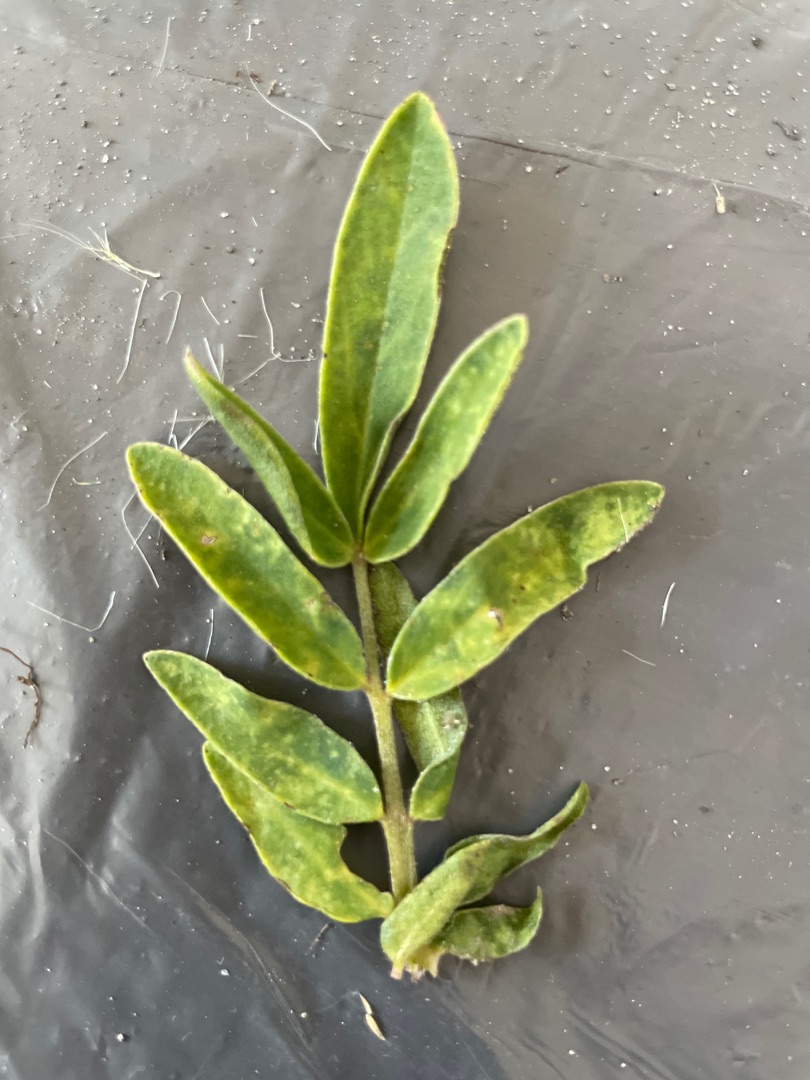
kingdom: Plantae
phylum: Tracheophyta
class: Magnoliopsida
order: Fabales
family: Fabaceae
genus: Anthyllis
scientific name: Anthyllis vulneraria
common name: Rundbælg
